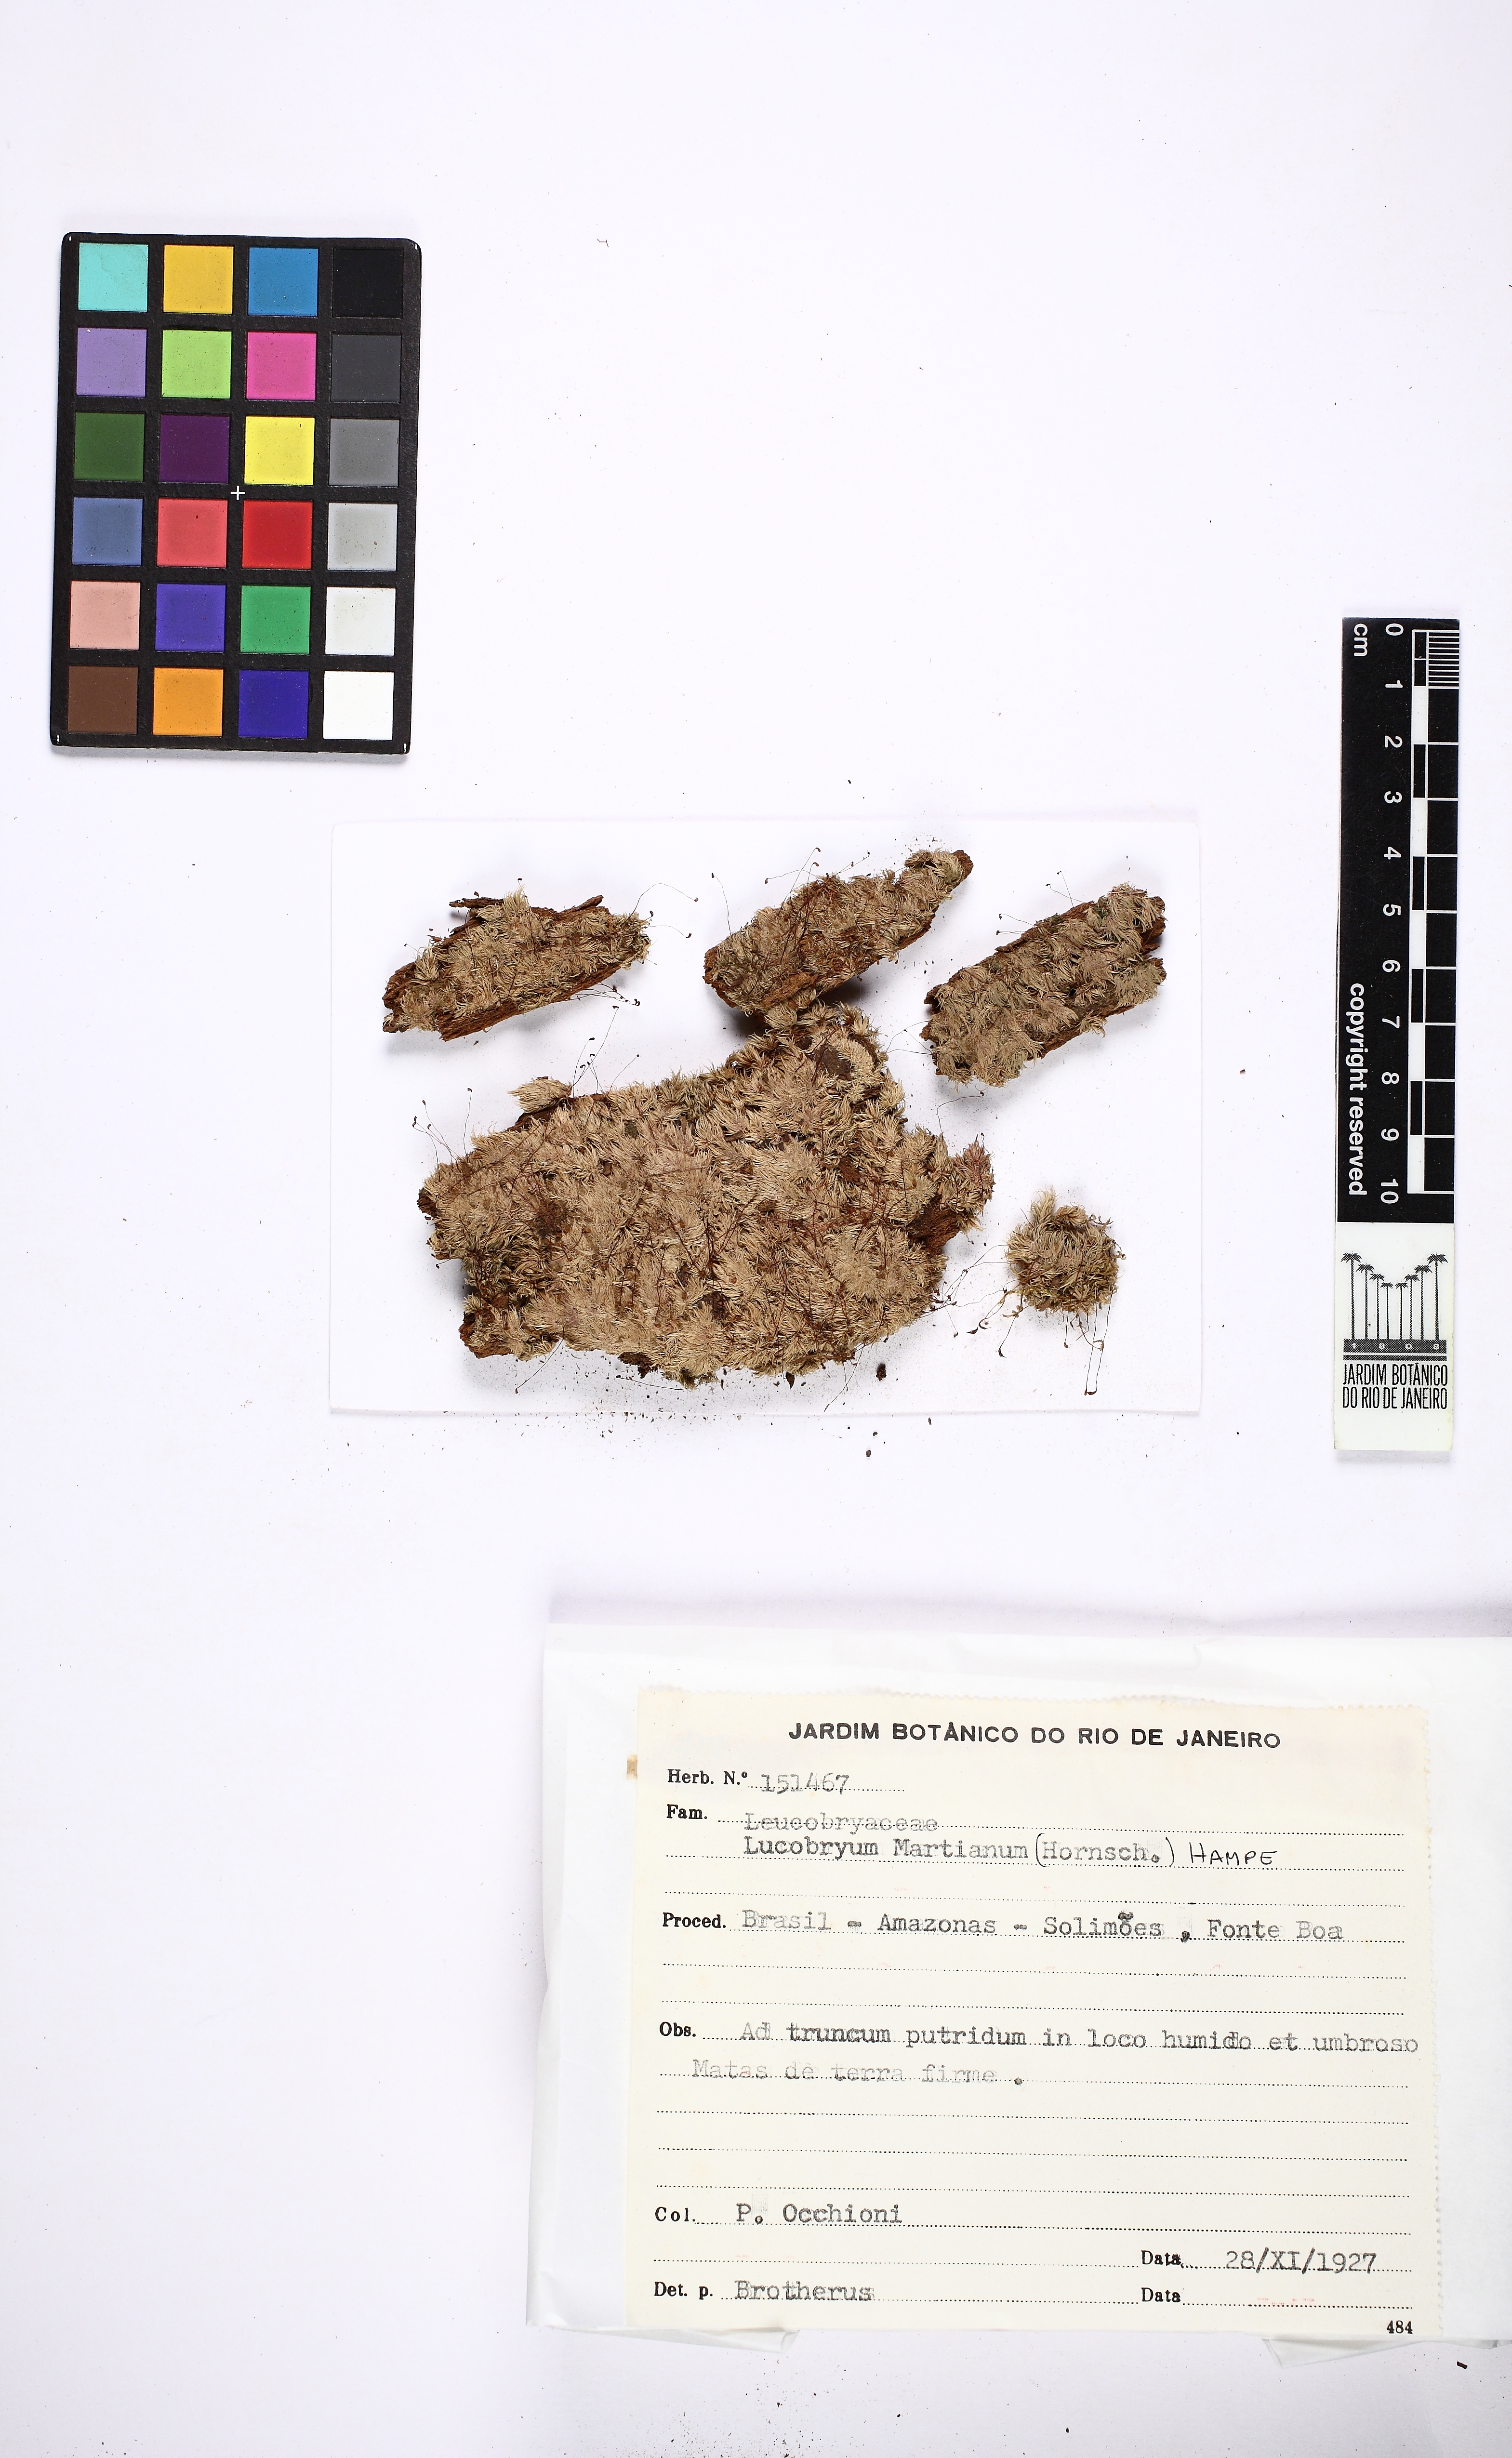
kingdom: Plantae
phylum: Bryophyta
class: Bryopsida
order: Dicranales
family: Leucobryaceae
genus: Leucobryum
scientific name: Leucobryum martianum
